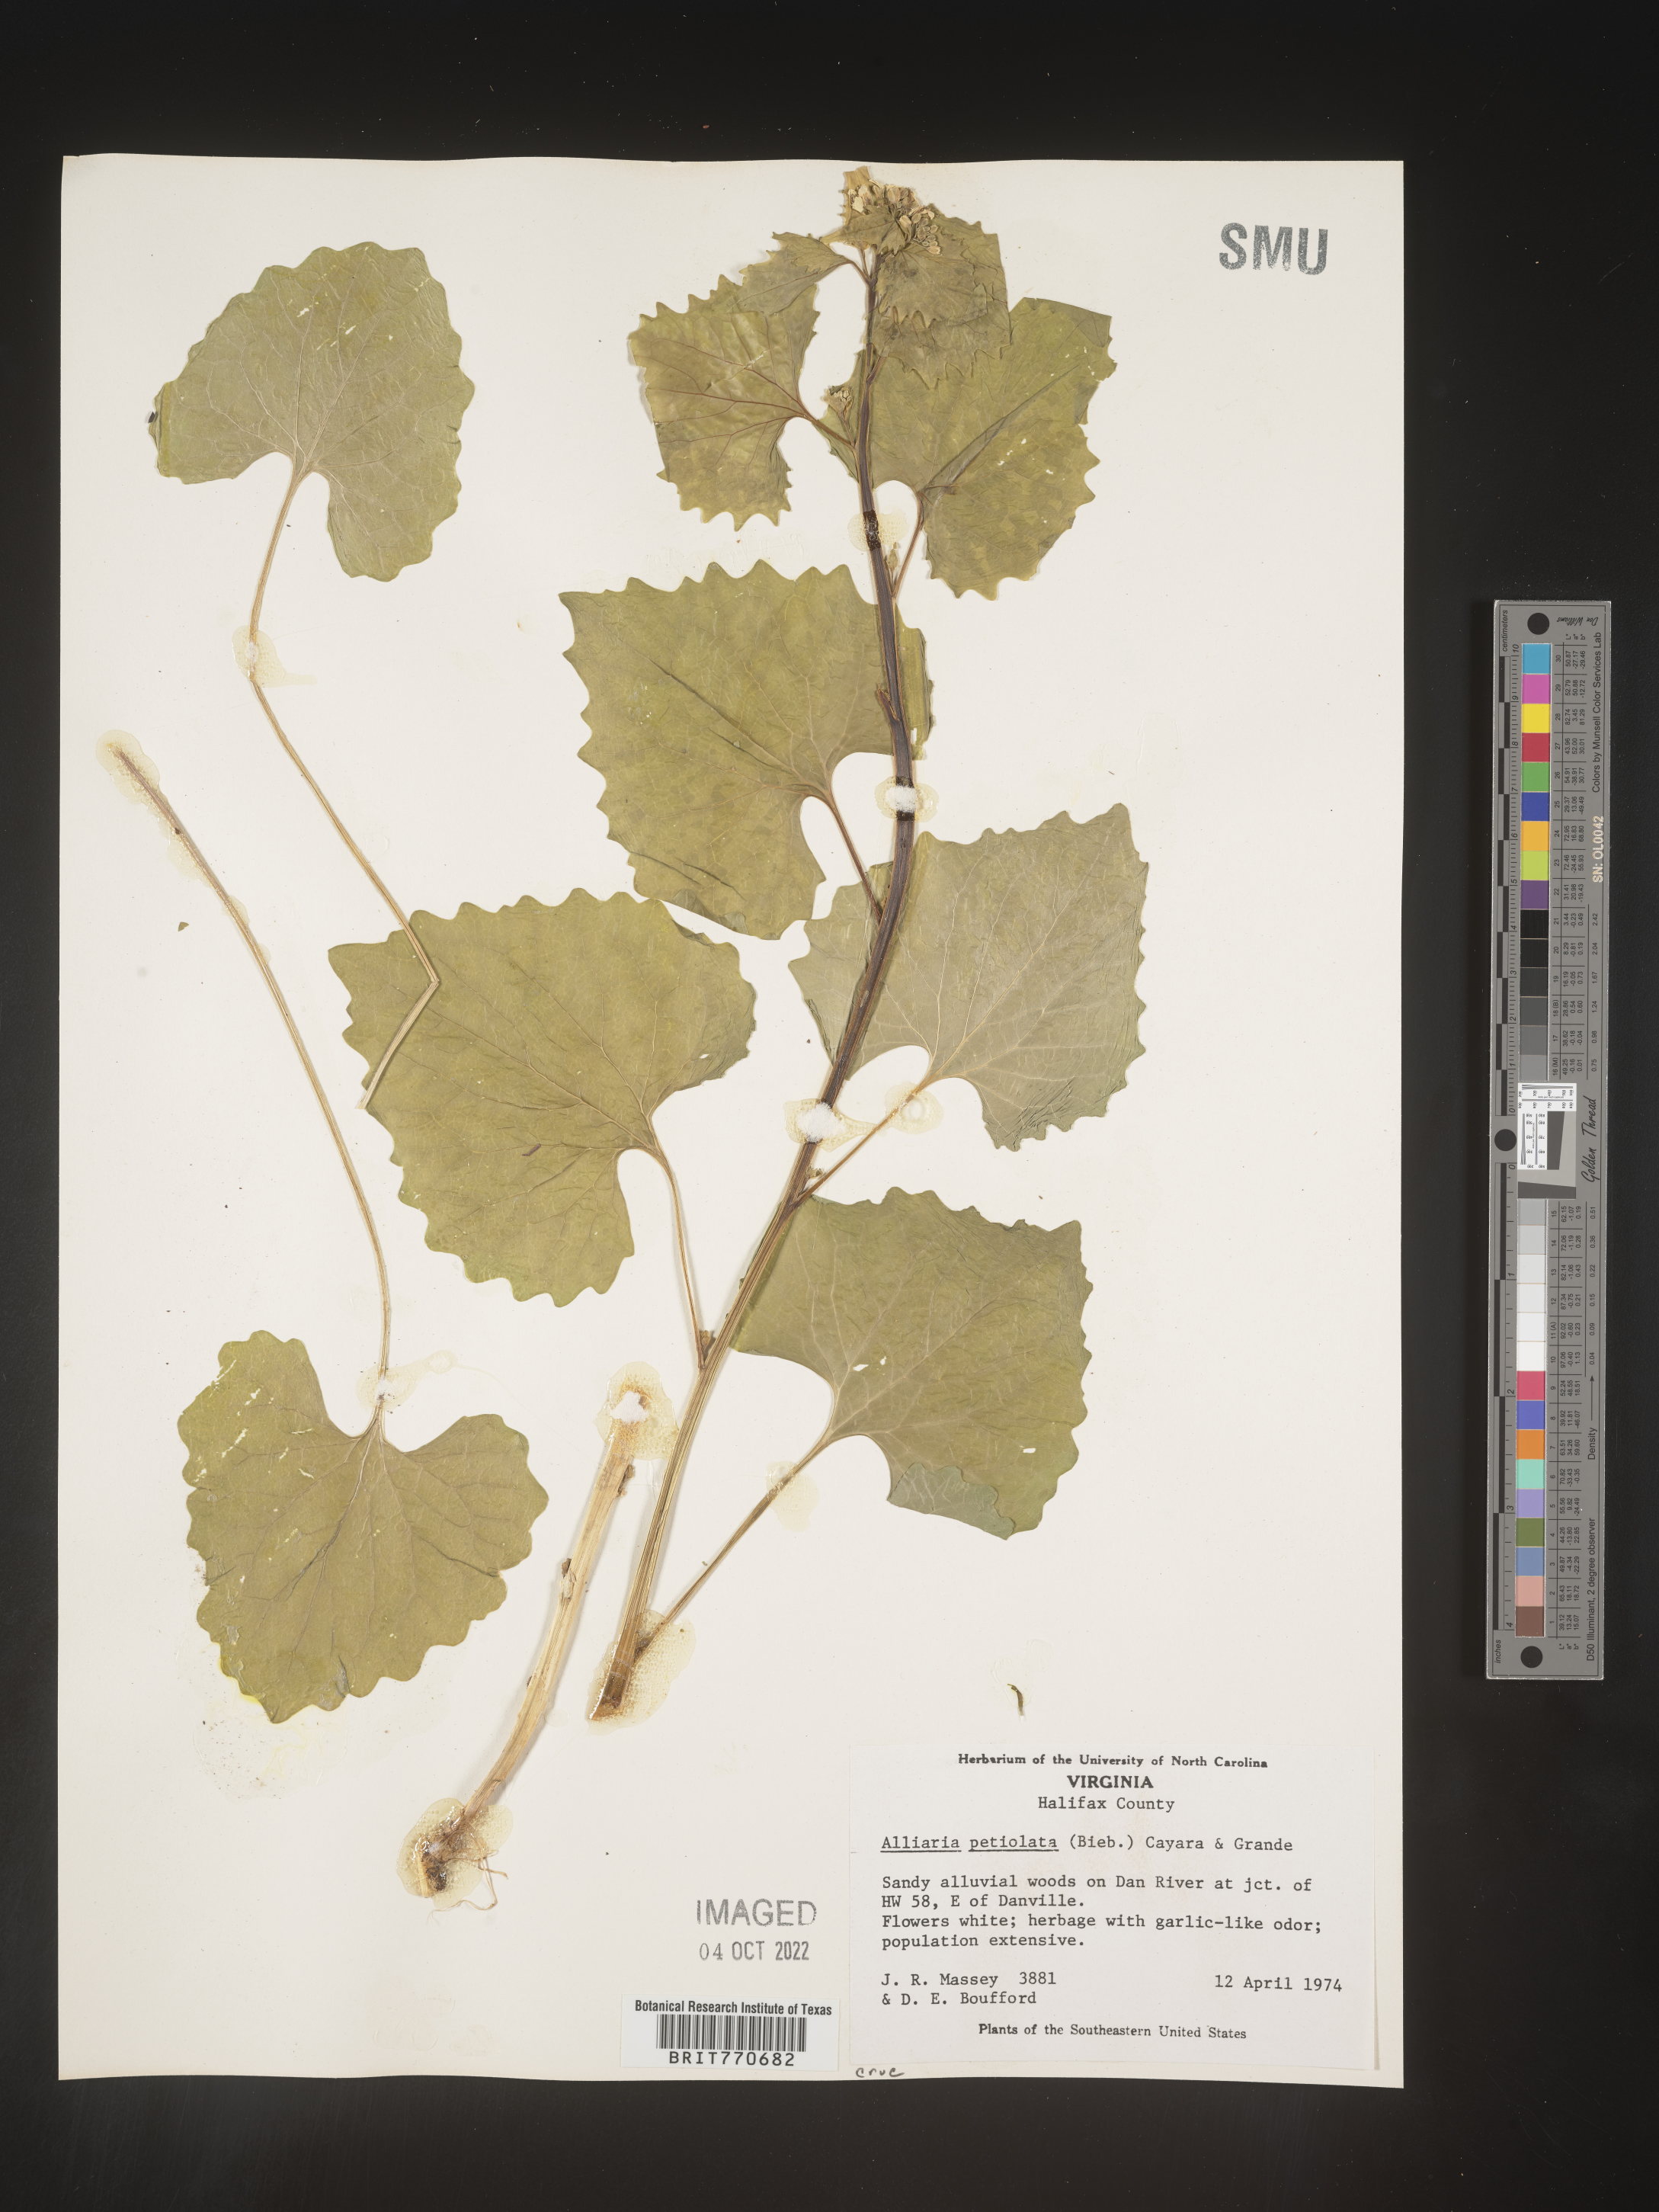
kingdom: Plantae
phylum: Tracheophyta
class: Magnoliopsida
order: Brassicales
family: Brassicaceae
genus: Alliaria
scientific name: Alliaria
